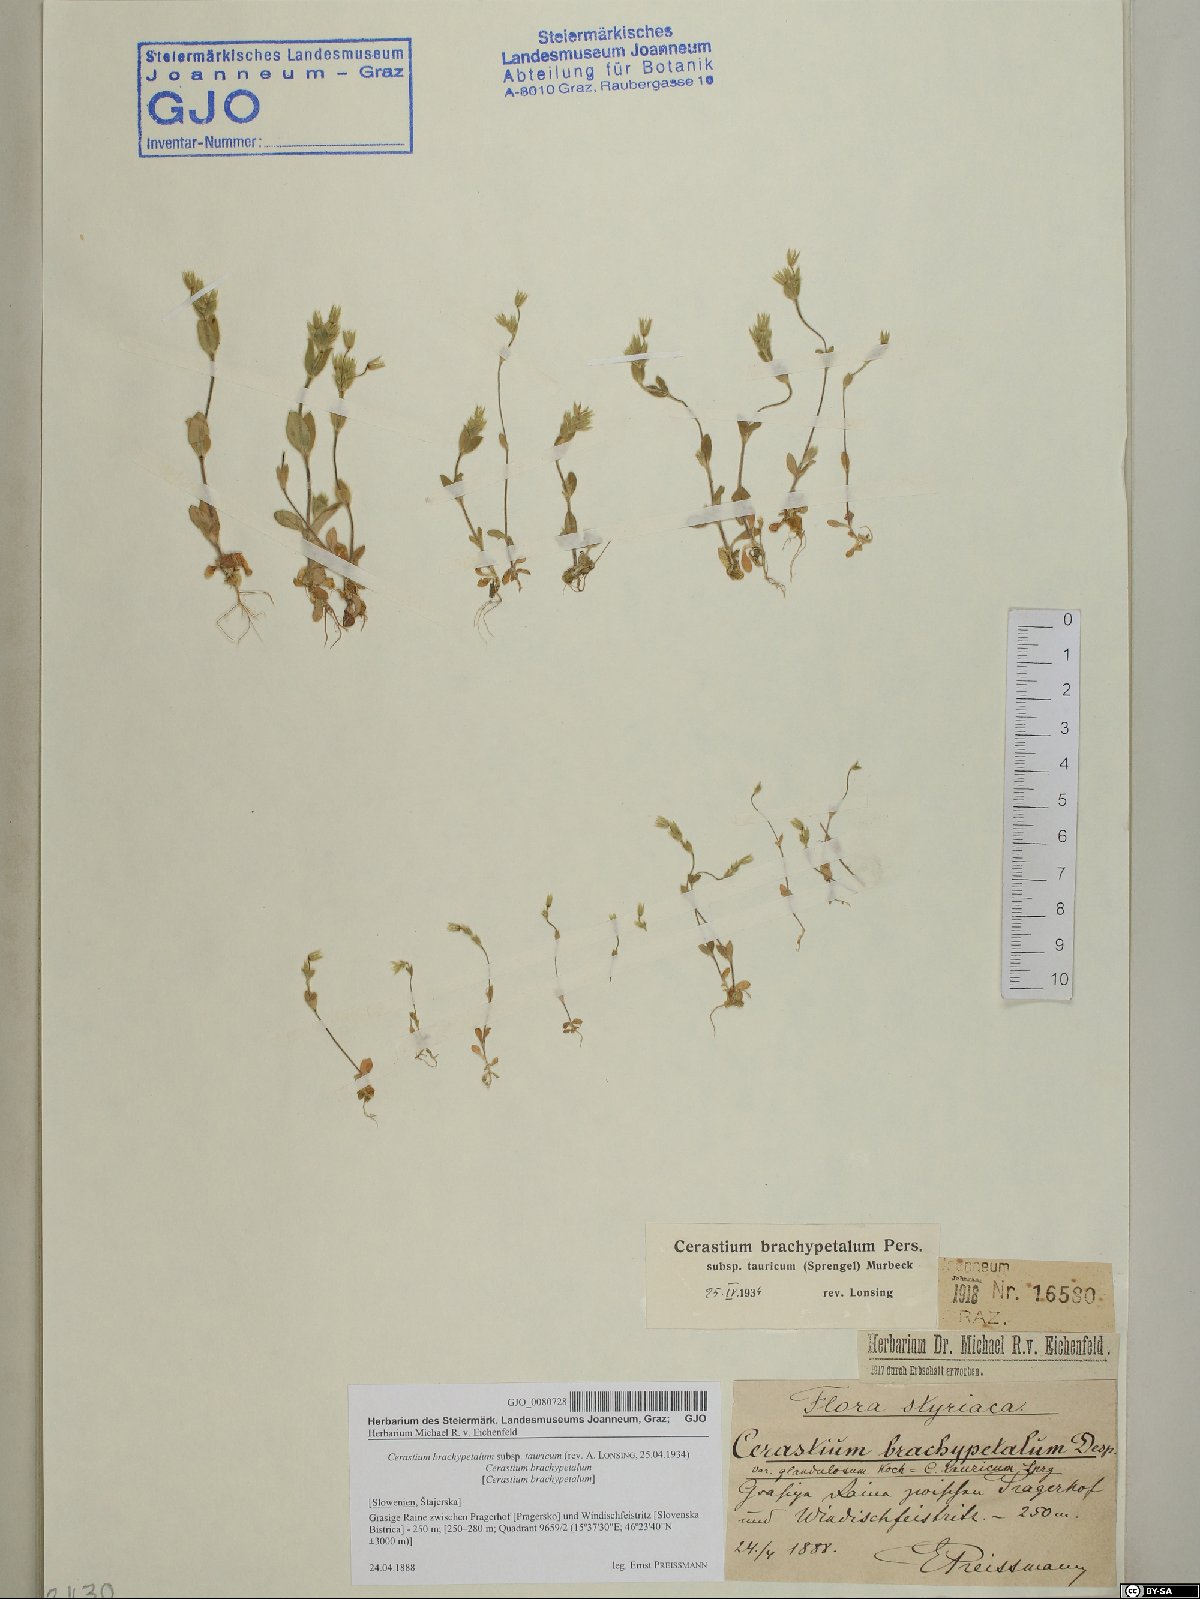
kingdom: Plantae
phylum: Tracheophyta
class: Magnoliopsida
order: Caryophyllales
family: Caryophyllaceae
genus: Cerastium
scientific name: Cerastium brachypetalum
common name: Grey mouse-ear
